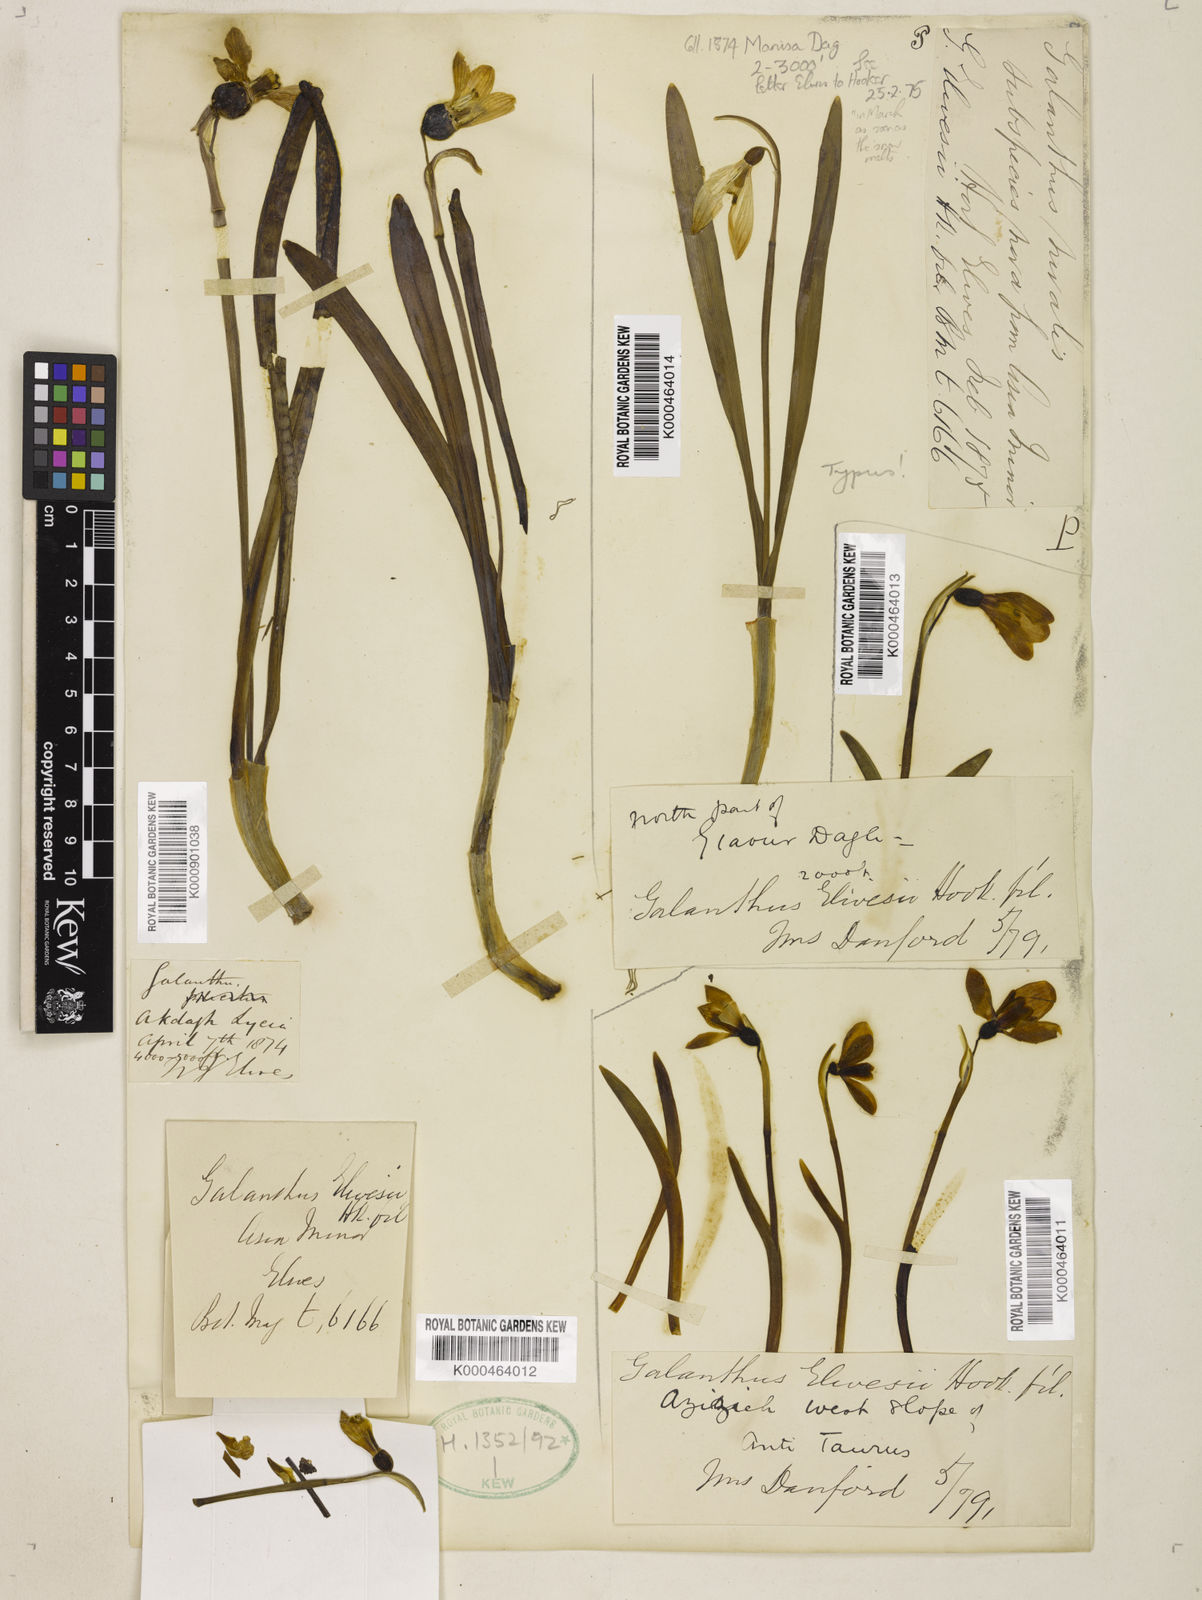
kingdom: Plantae
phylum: Tracheophyta
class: Liliopsida
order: Asparagales
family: Amaryllidaceae
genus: Galanthus
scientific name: Galanthus elwesii
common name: Greater snowdrop
